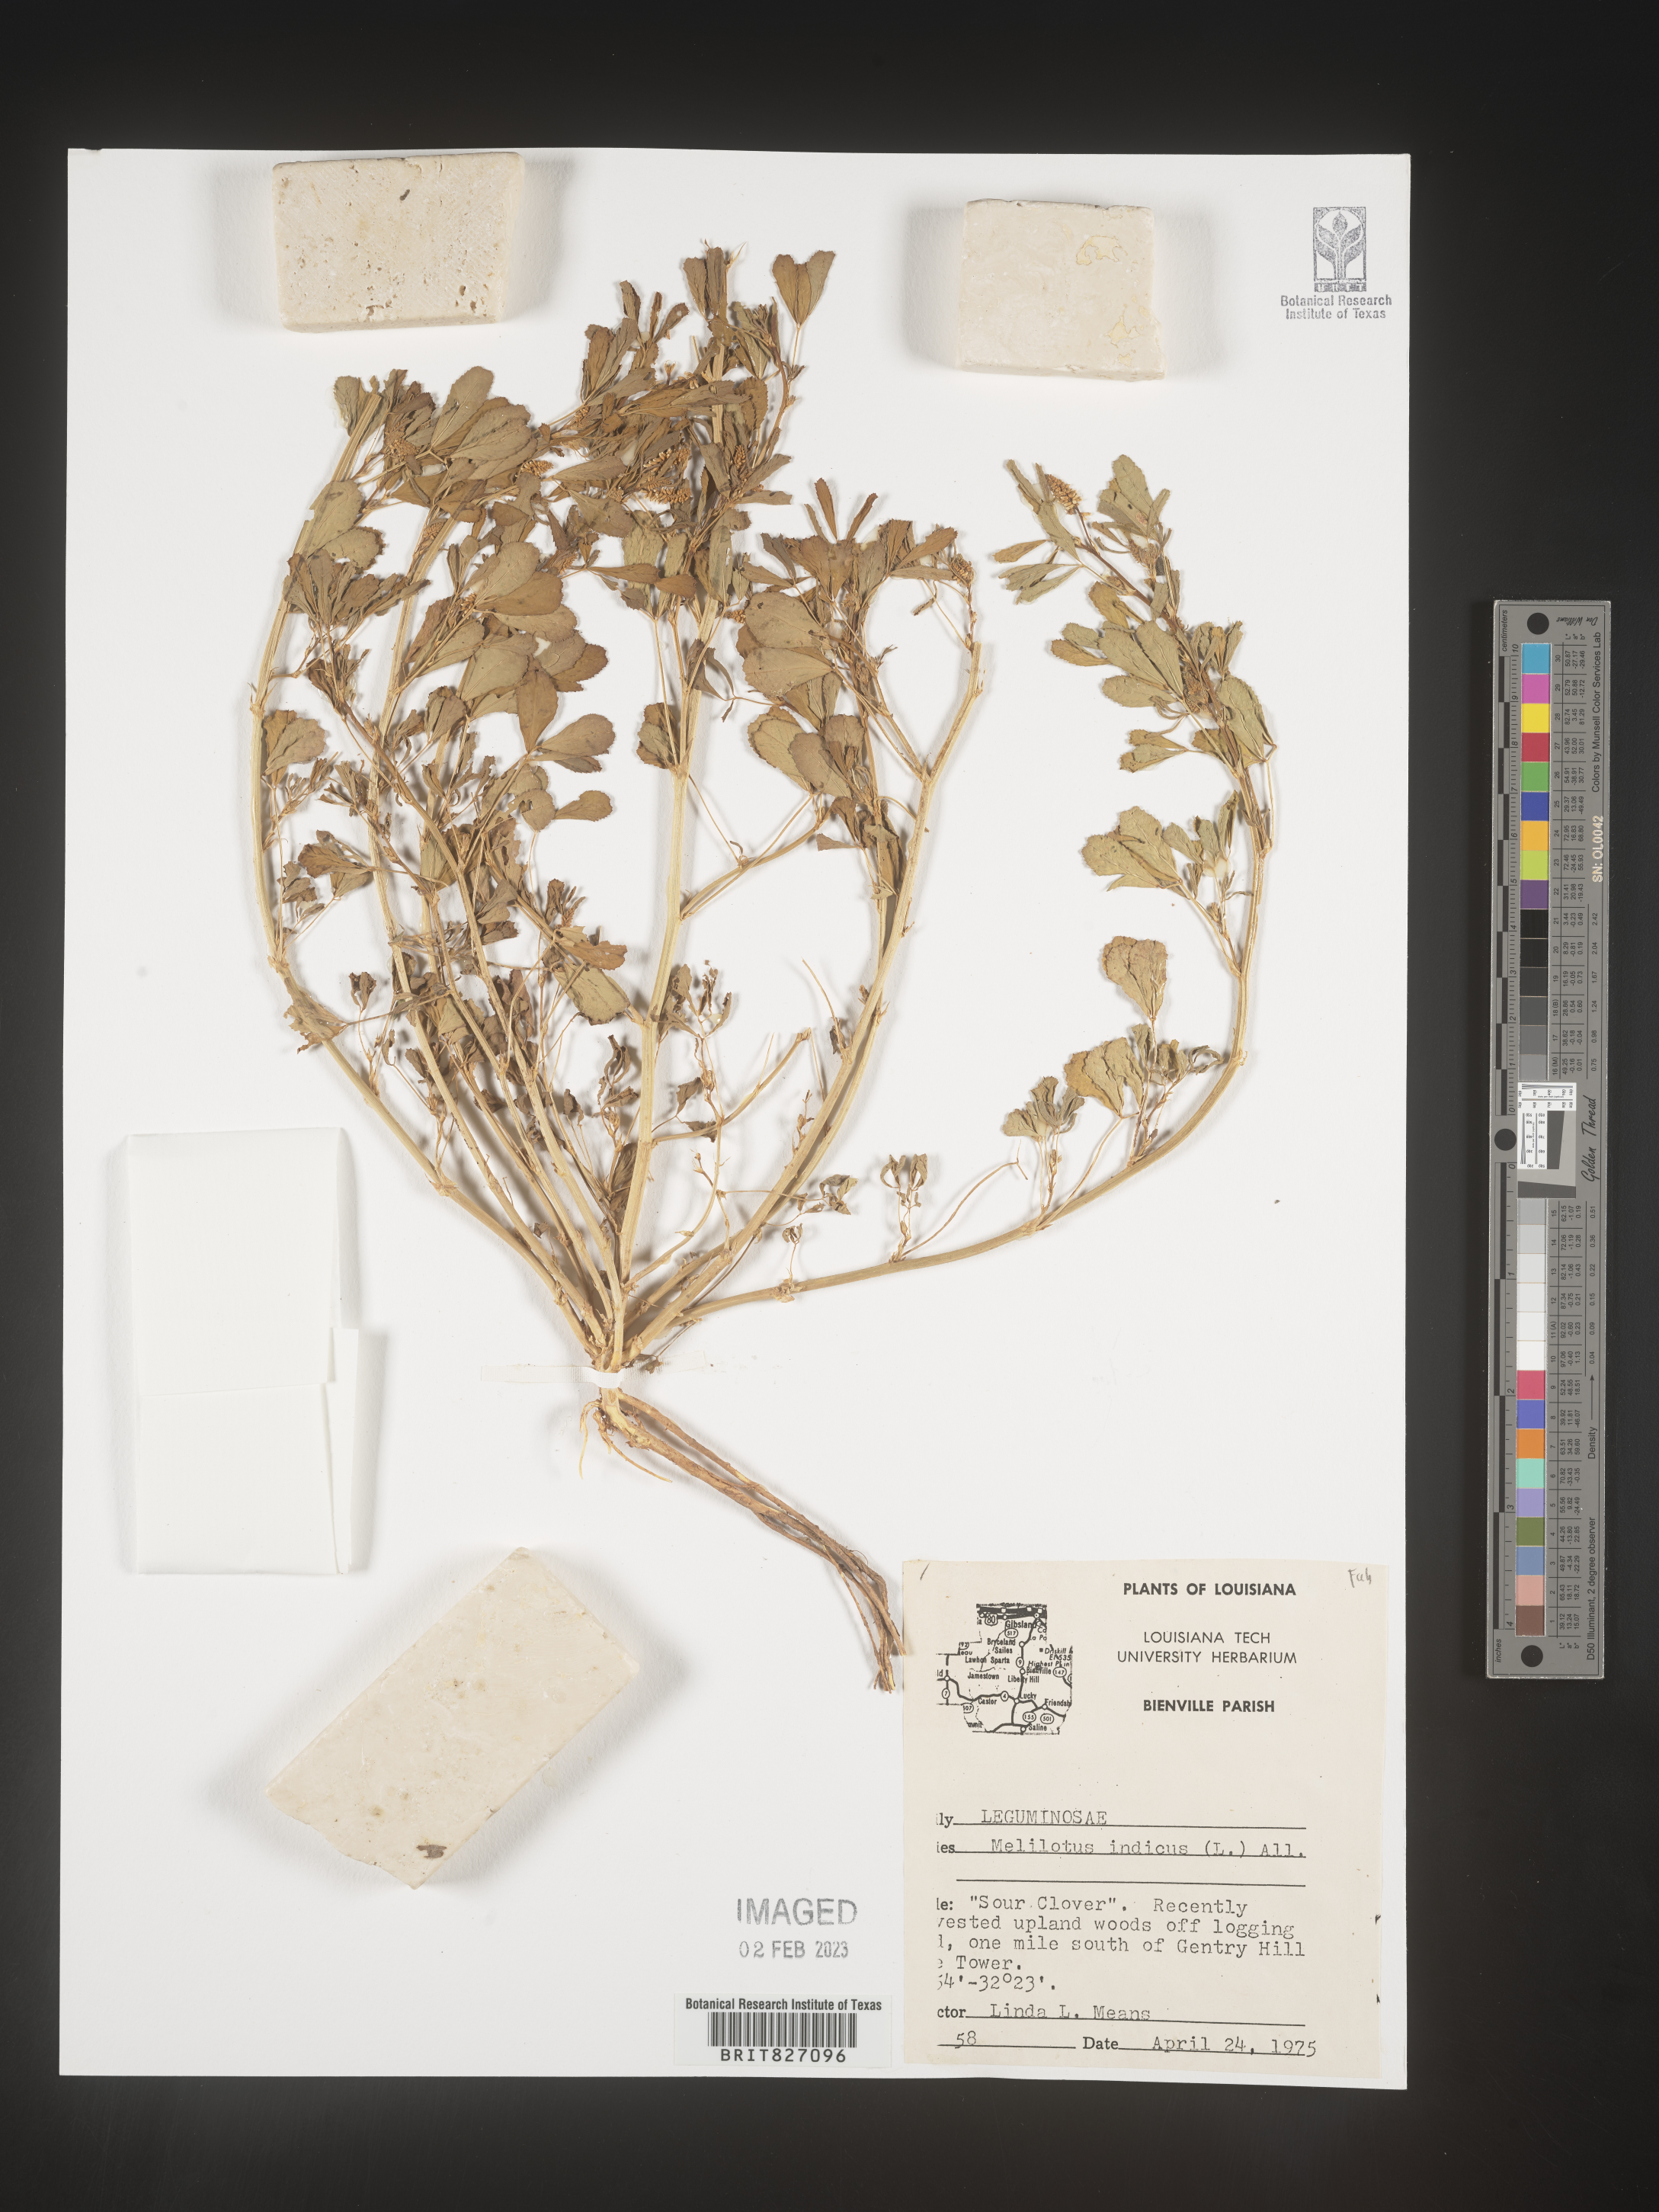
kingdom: Plantae
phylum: Tracheophyta
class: Magnoliopsida
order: Fabales
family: Fabaceae
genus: Melilotus
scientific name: Melilotus indicus
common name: Small melilot
